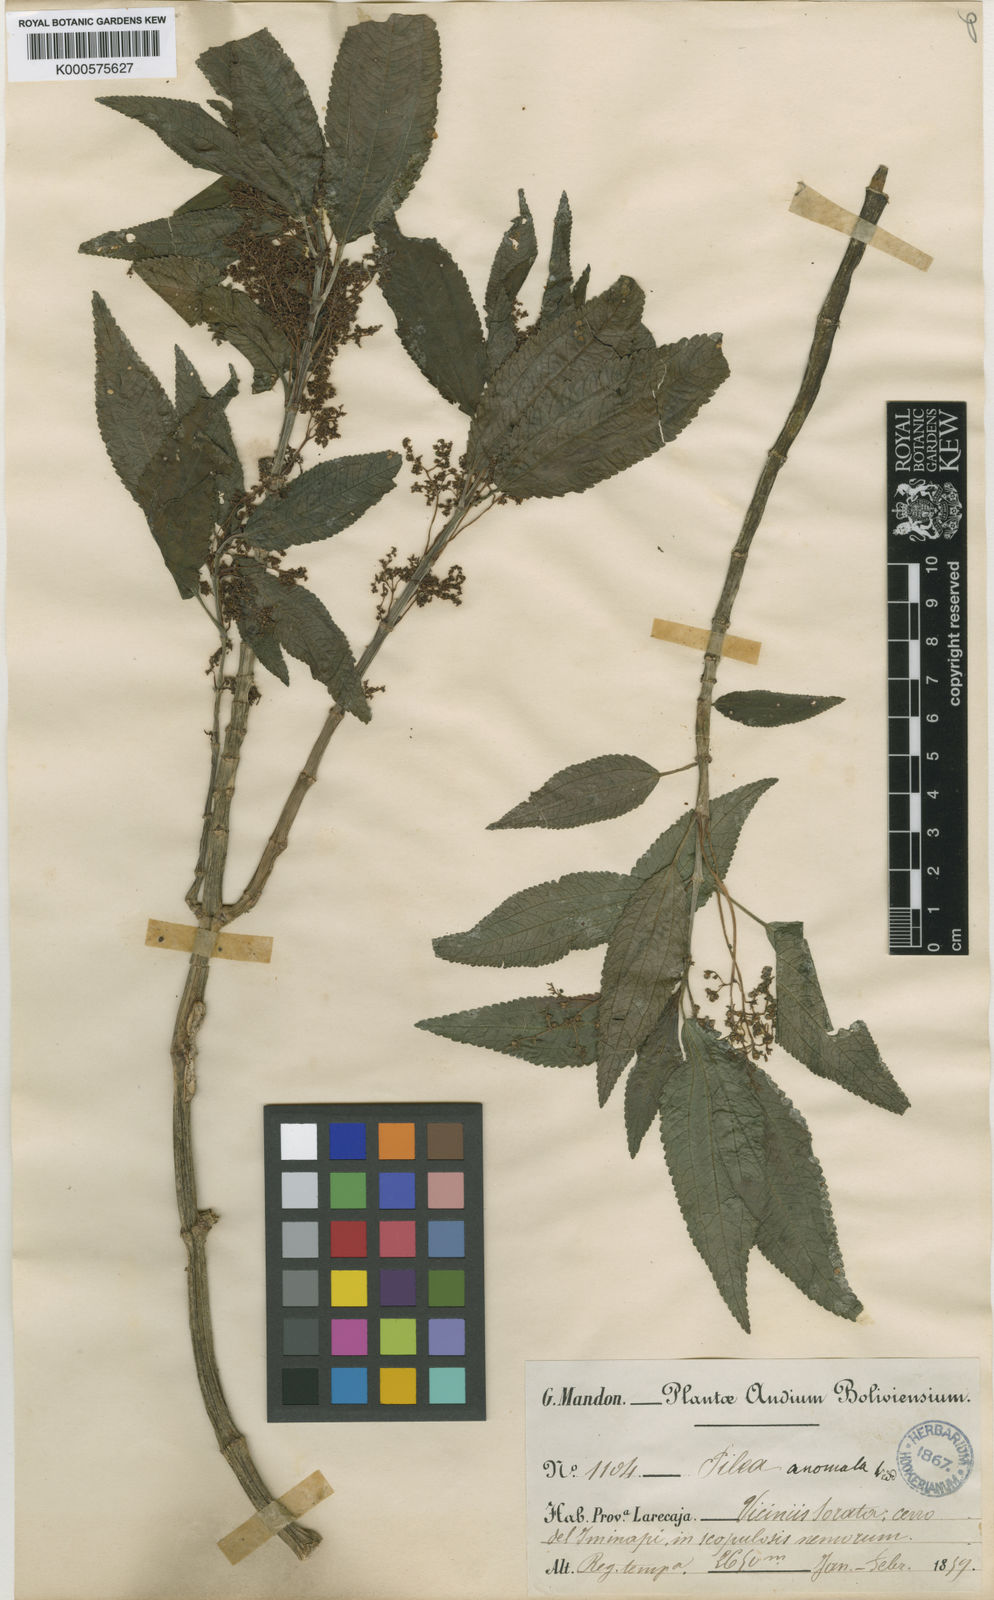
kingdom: Plantae
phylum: Tracheophyta
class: Magnoliopsida
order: Rosales
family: Urticaceae
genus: Pilea
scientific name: Pilea multiflora
